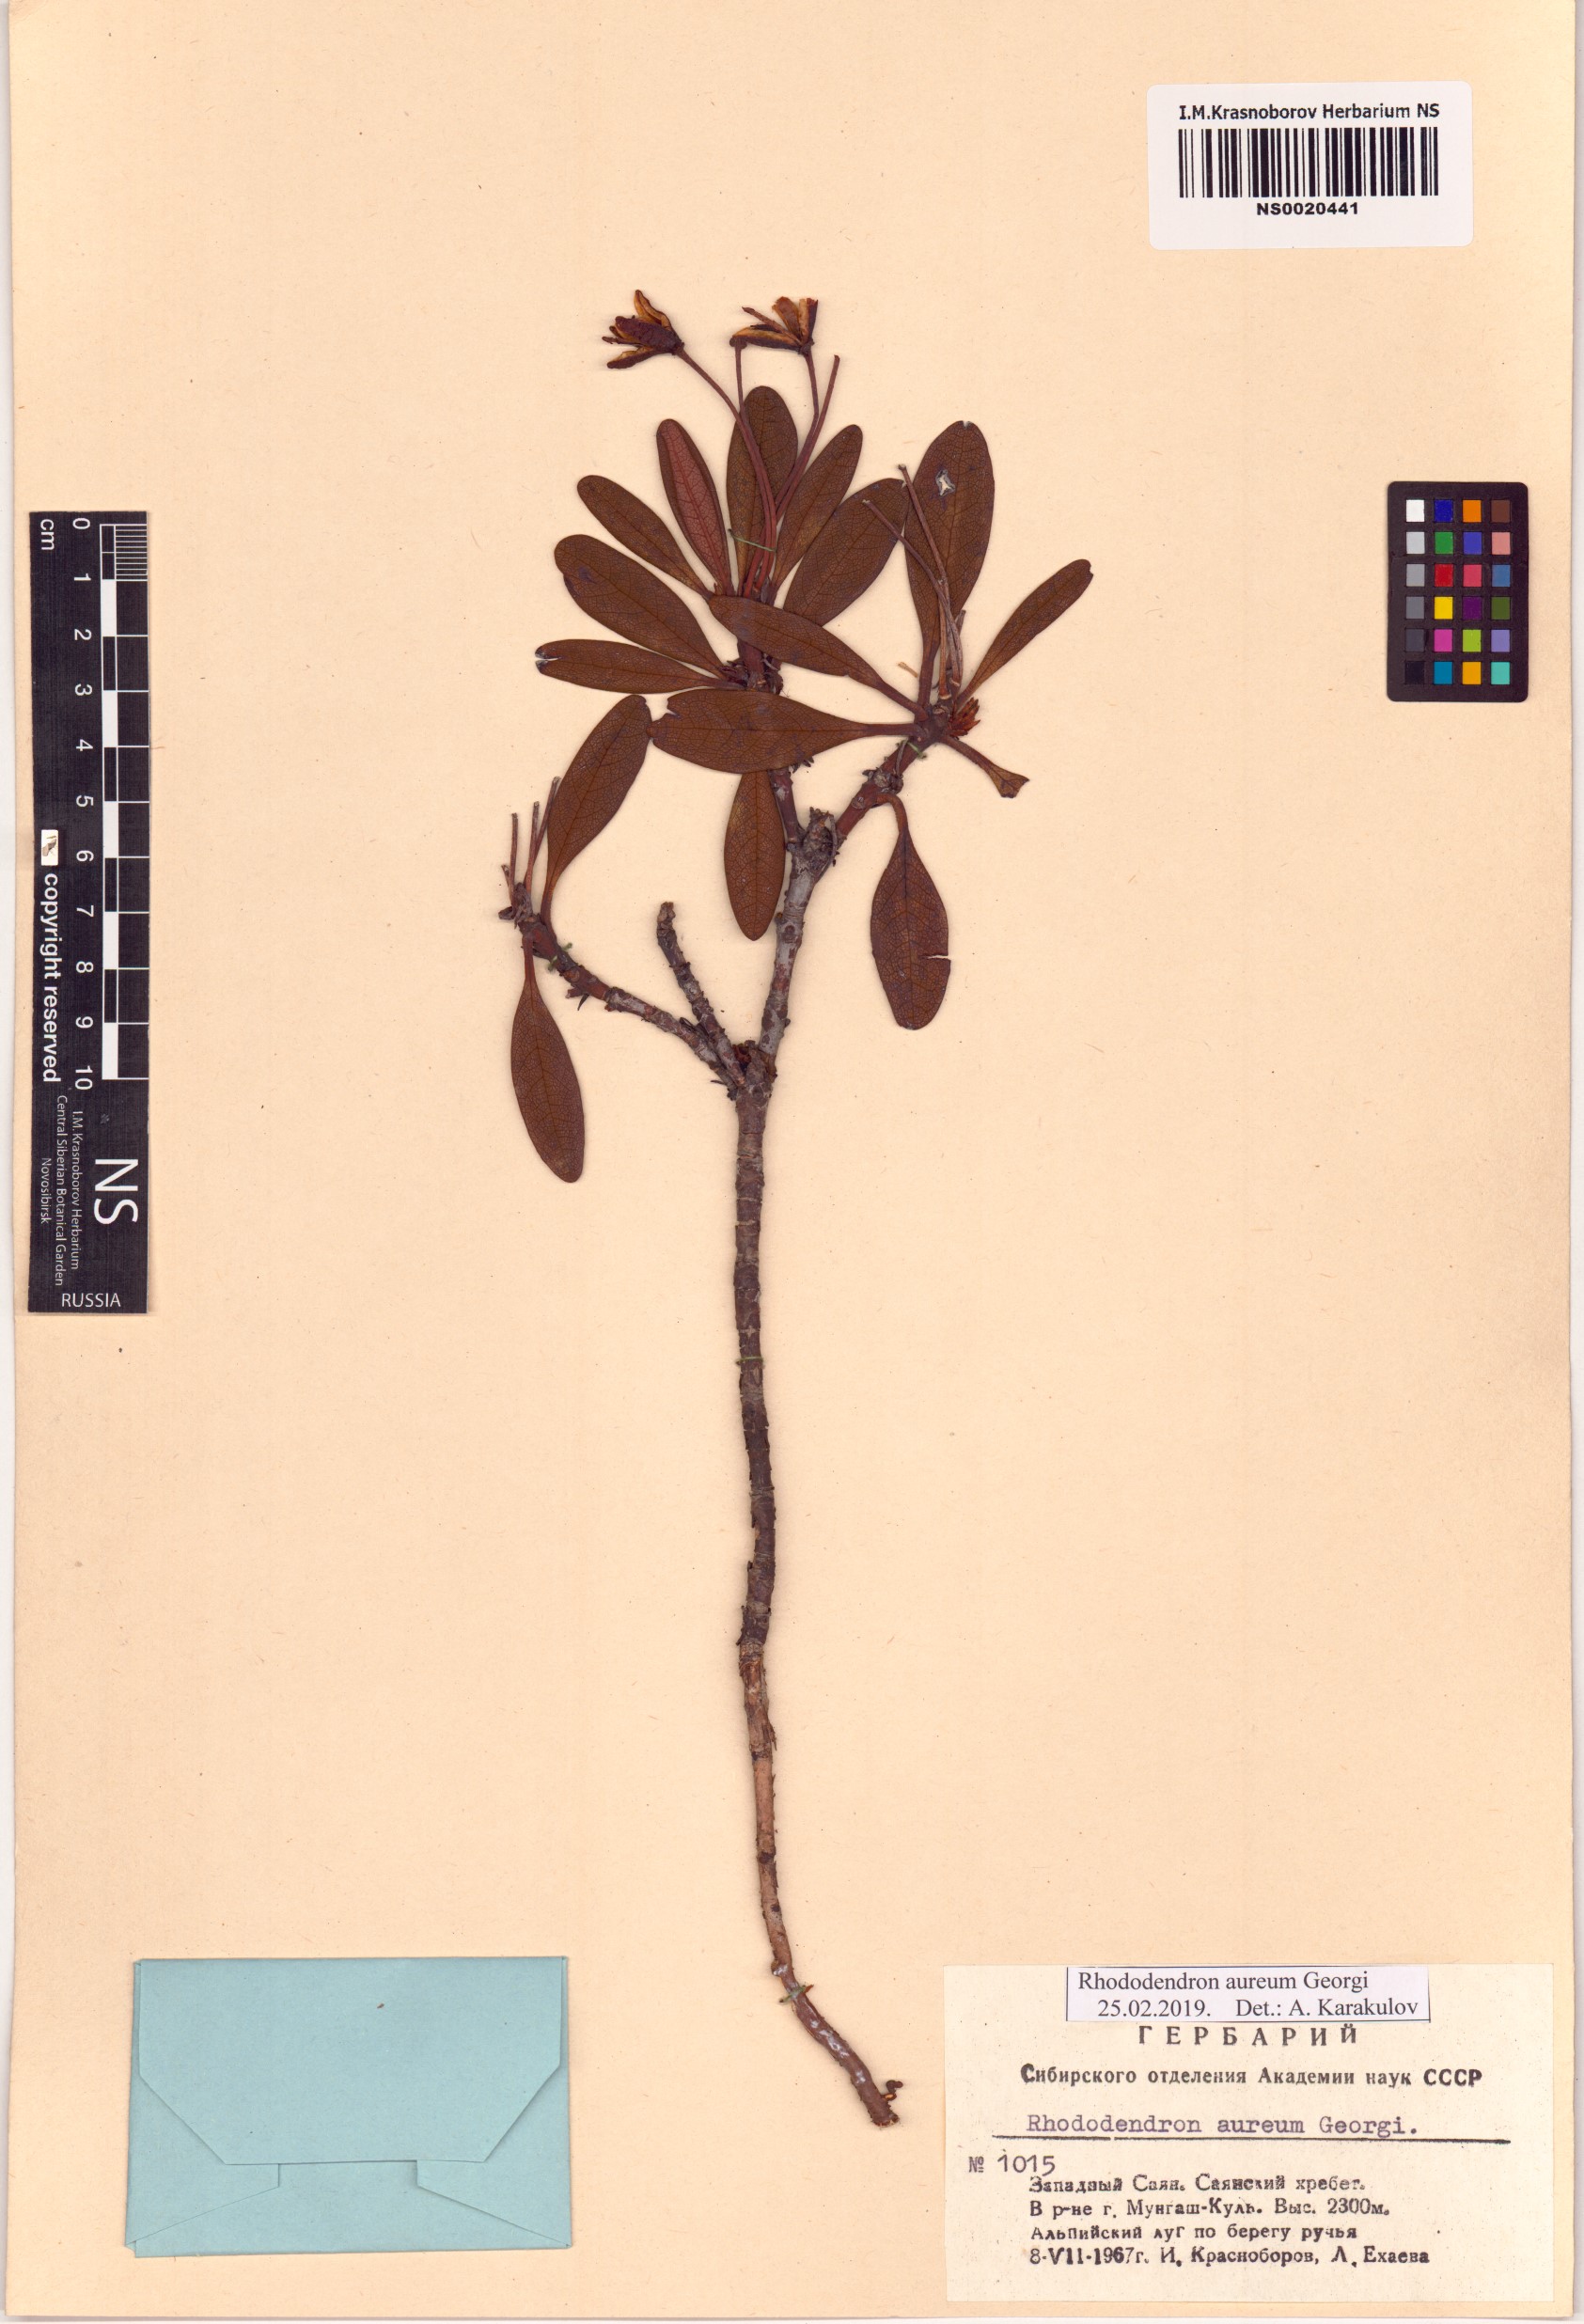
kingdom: Plantae
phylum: Tracheophyta
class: Magnoliopsida
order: Ericales
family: Ericaceae
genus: Rhododendron
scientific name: Rhododendron aureum
